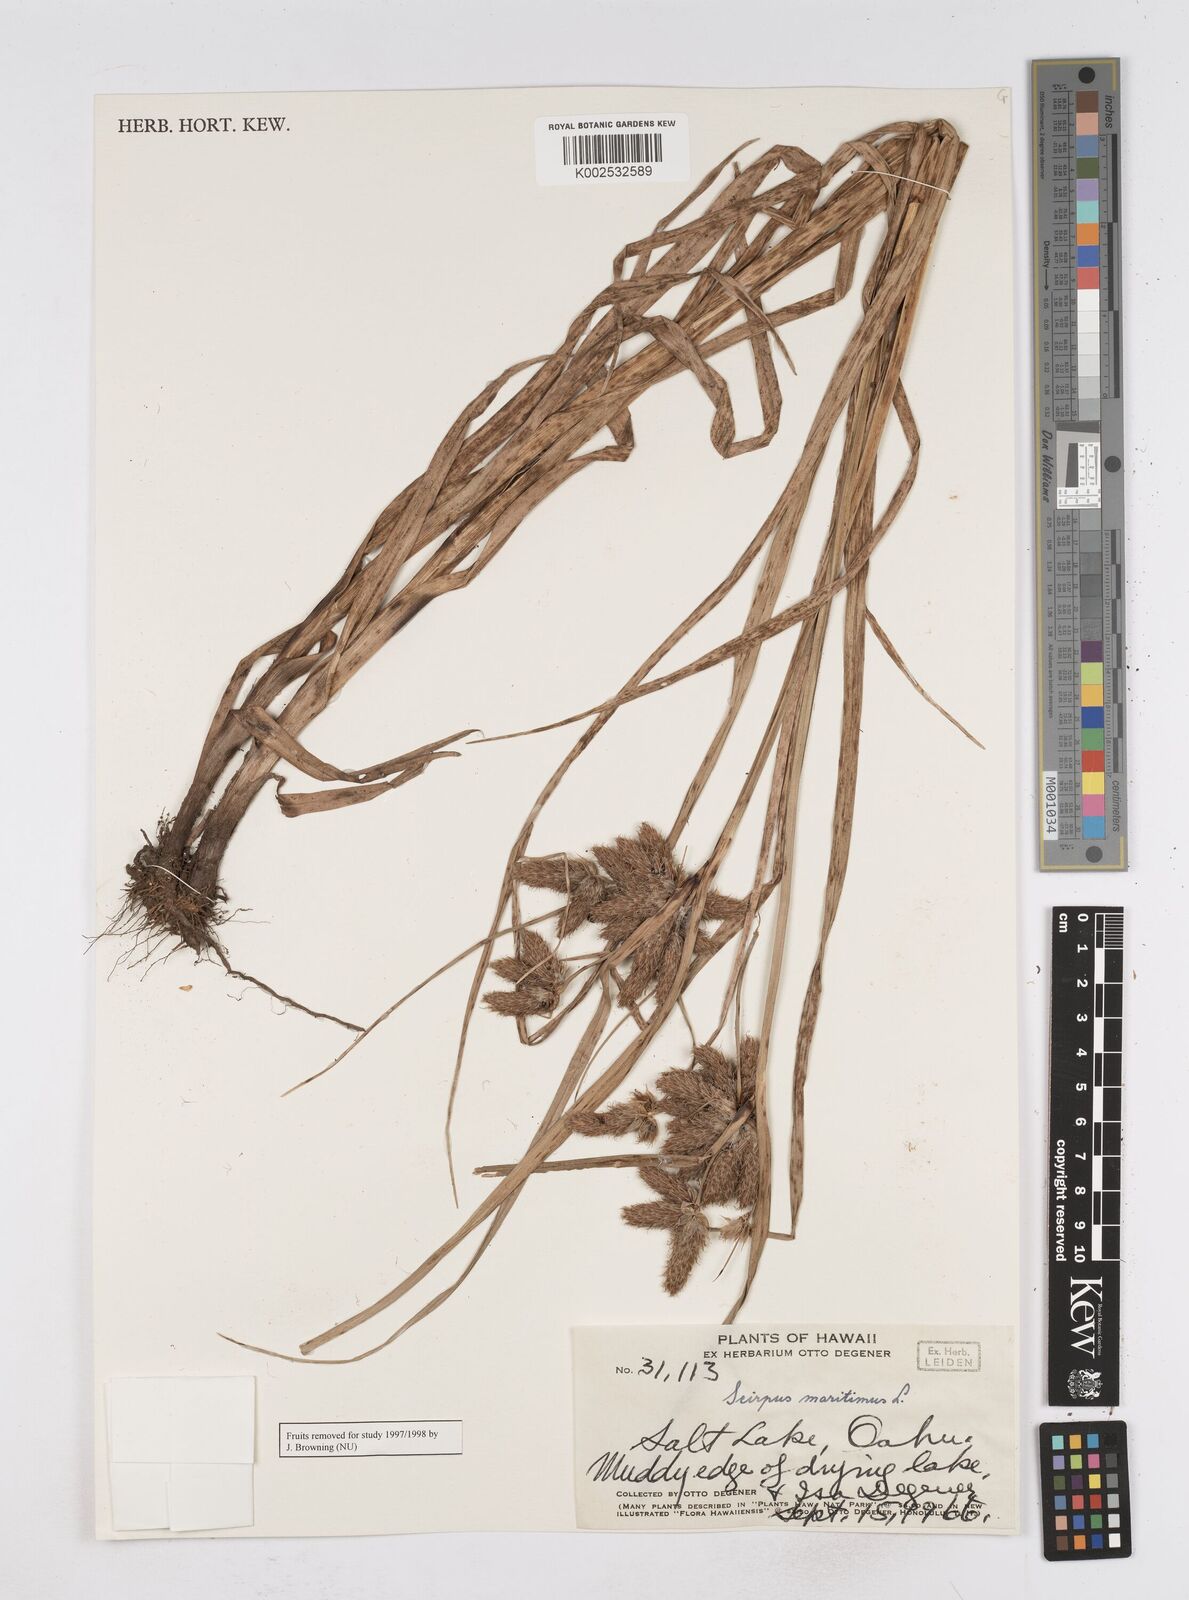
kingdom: Plantae
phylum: Tracheophyta
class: Liliopsida
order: Poales
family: Cyperaceae
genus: Bolboschoenus
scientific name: Bolboschoenus maritimus
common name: Sea club-rush
